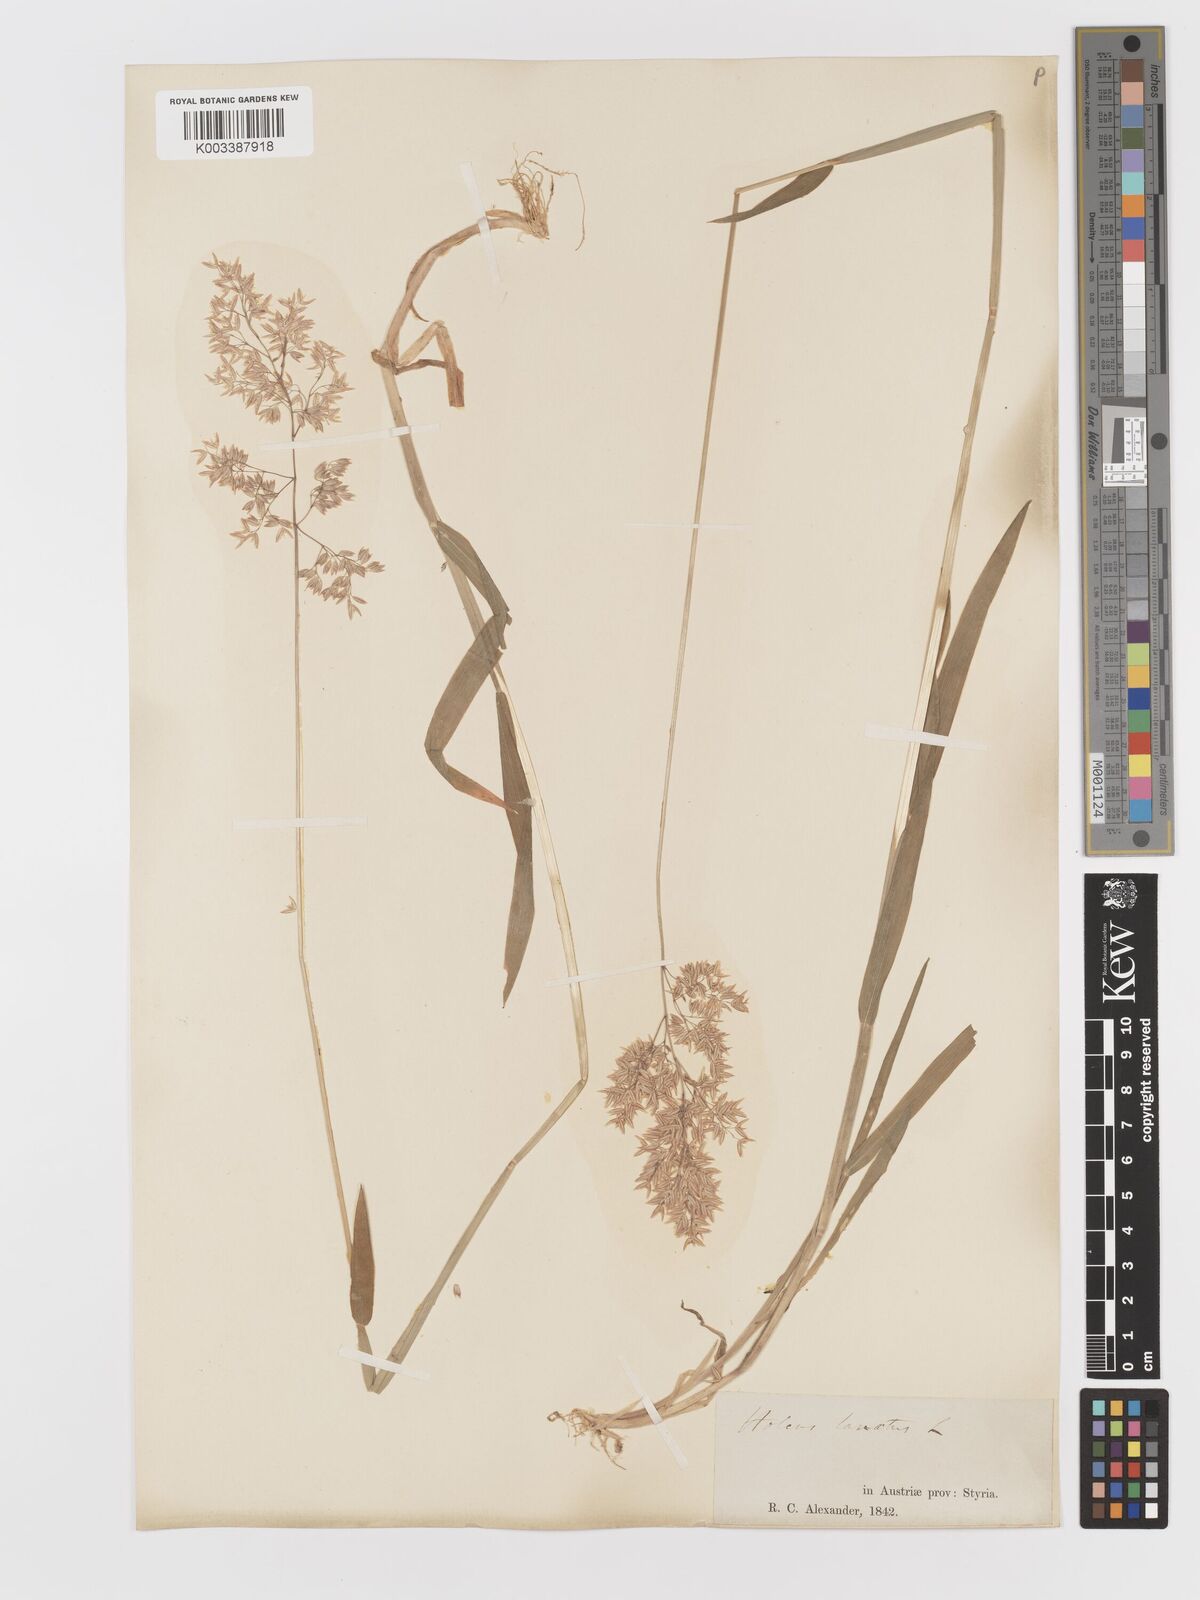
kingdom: Plantae
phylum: Tracheophyta
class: Liliopsida
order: Poales
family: Poaceae
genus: Holcus
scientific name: Holcus lanatus
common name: Yorkshire-fog
